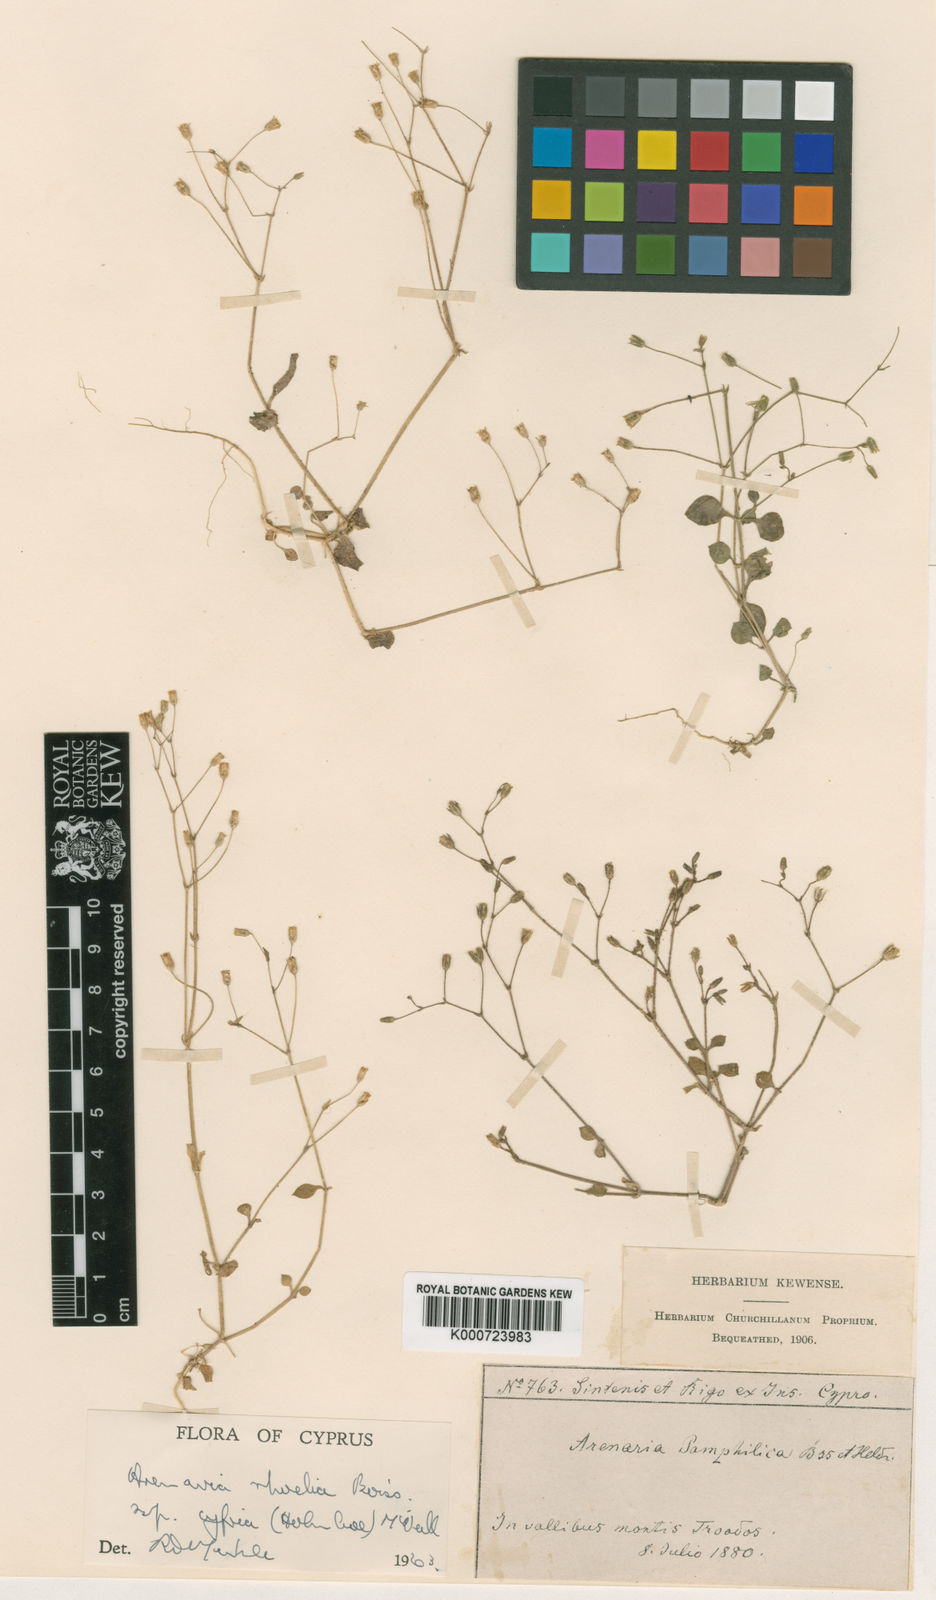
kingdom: Plantae
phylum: Tracheophyta
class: Magnoliopsida
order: Caryophyllales
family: Caryophyllaceae
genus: Arenaria
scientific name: Arenaria rhodia
